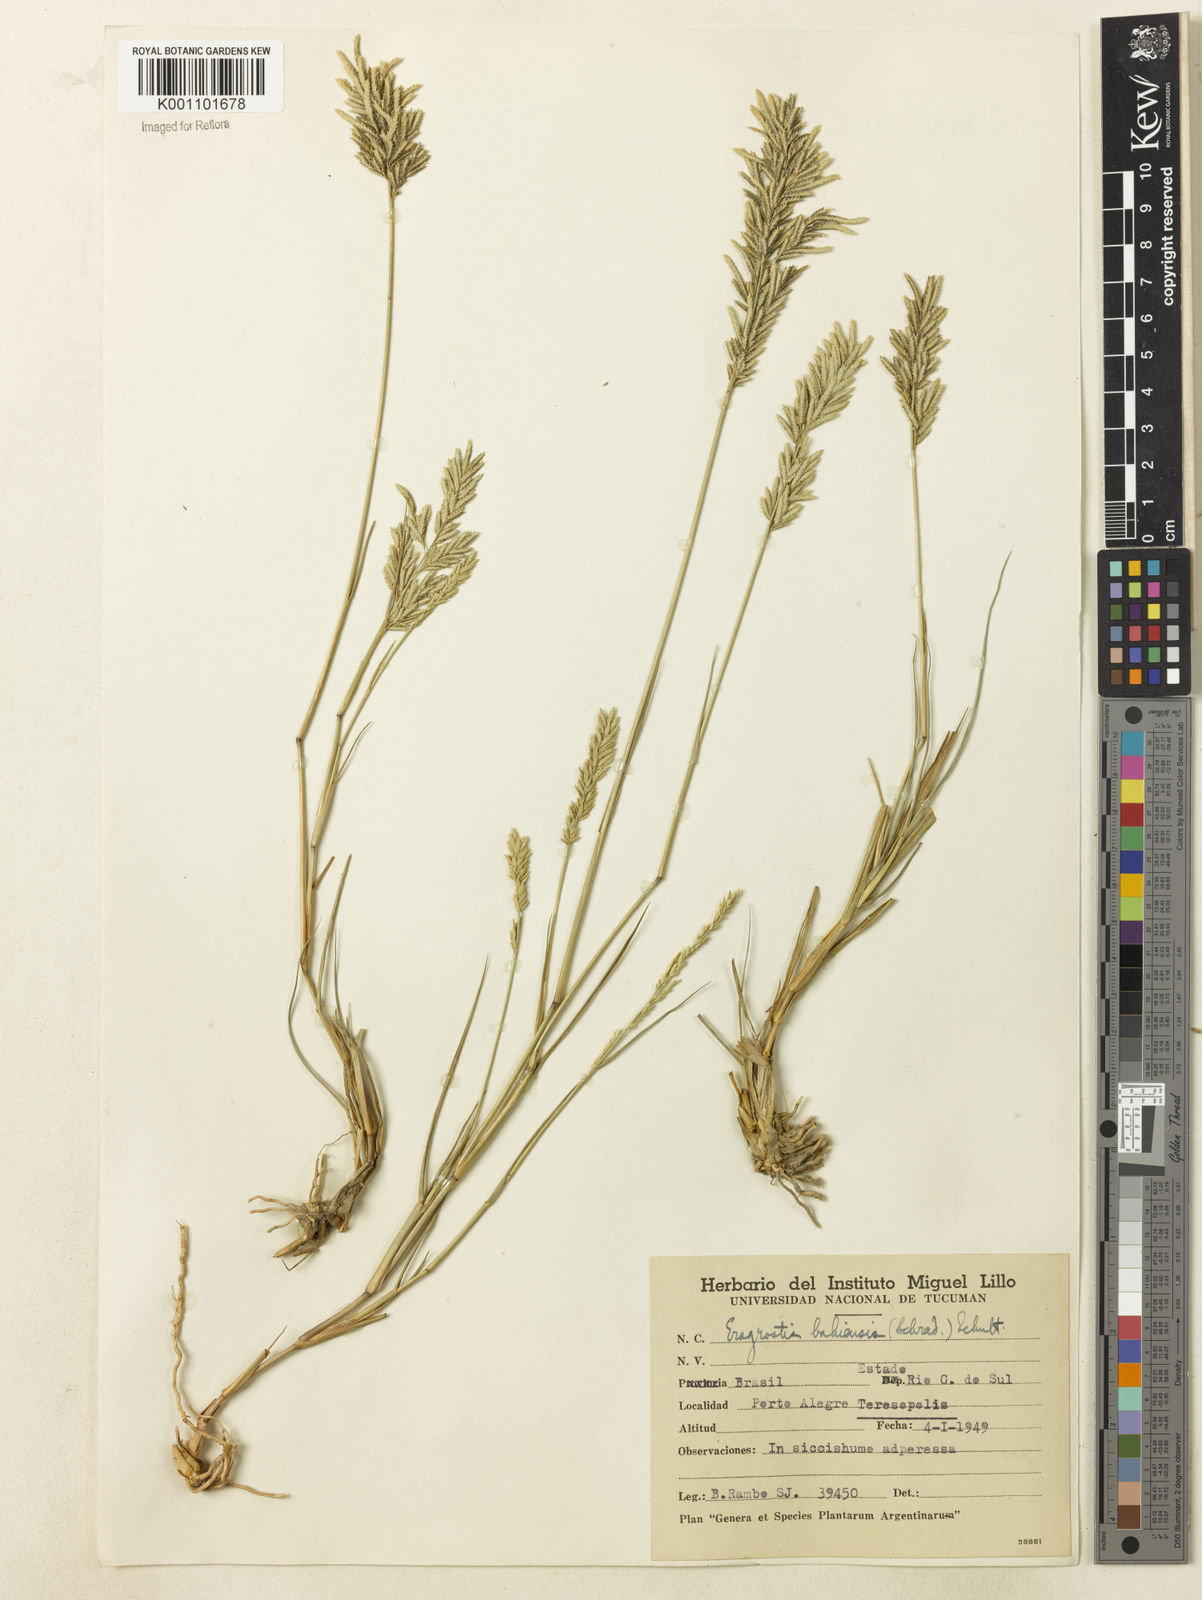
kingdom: Plantae
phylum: Tracheophyta
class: Liliopsida
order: Poales
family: Poaceae
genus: Eragrostis
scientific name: Eragrostis cataclasta
